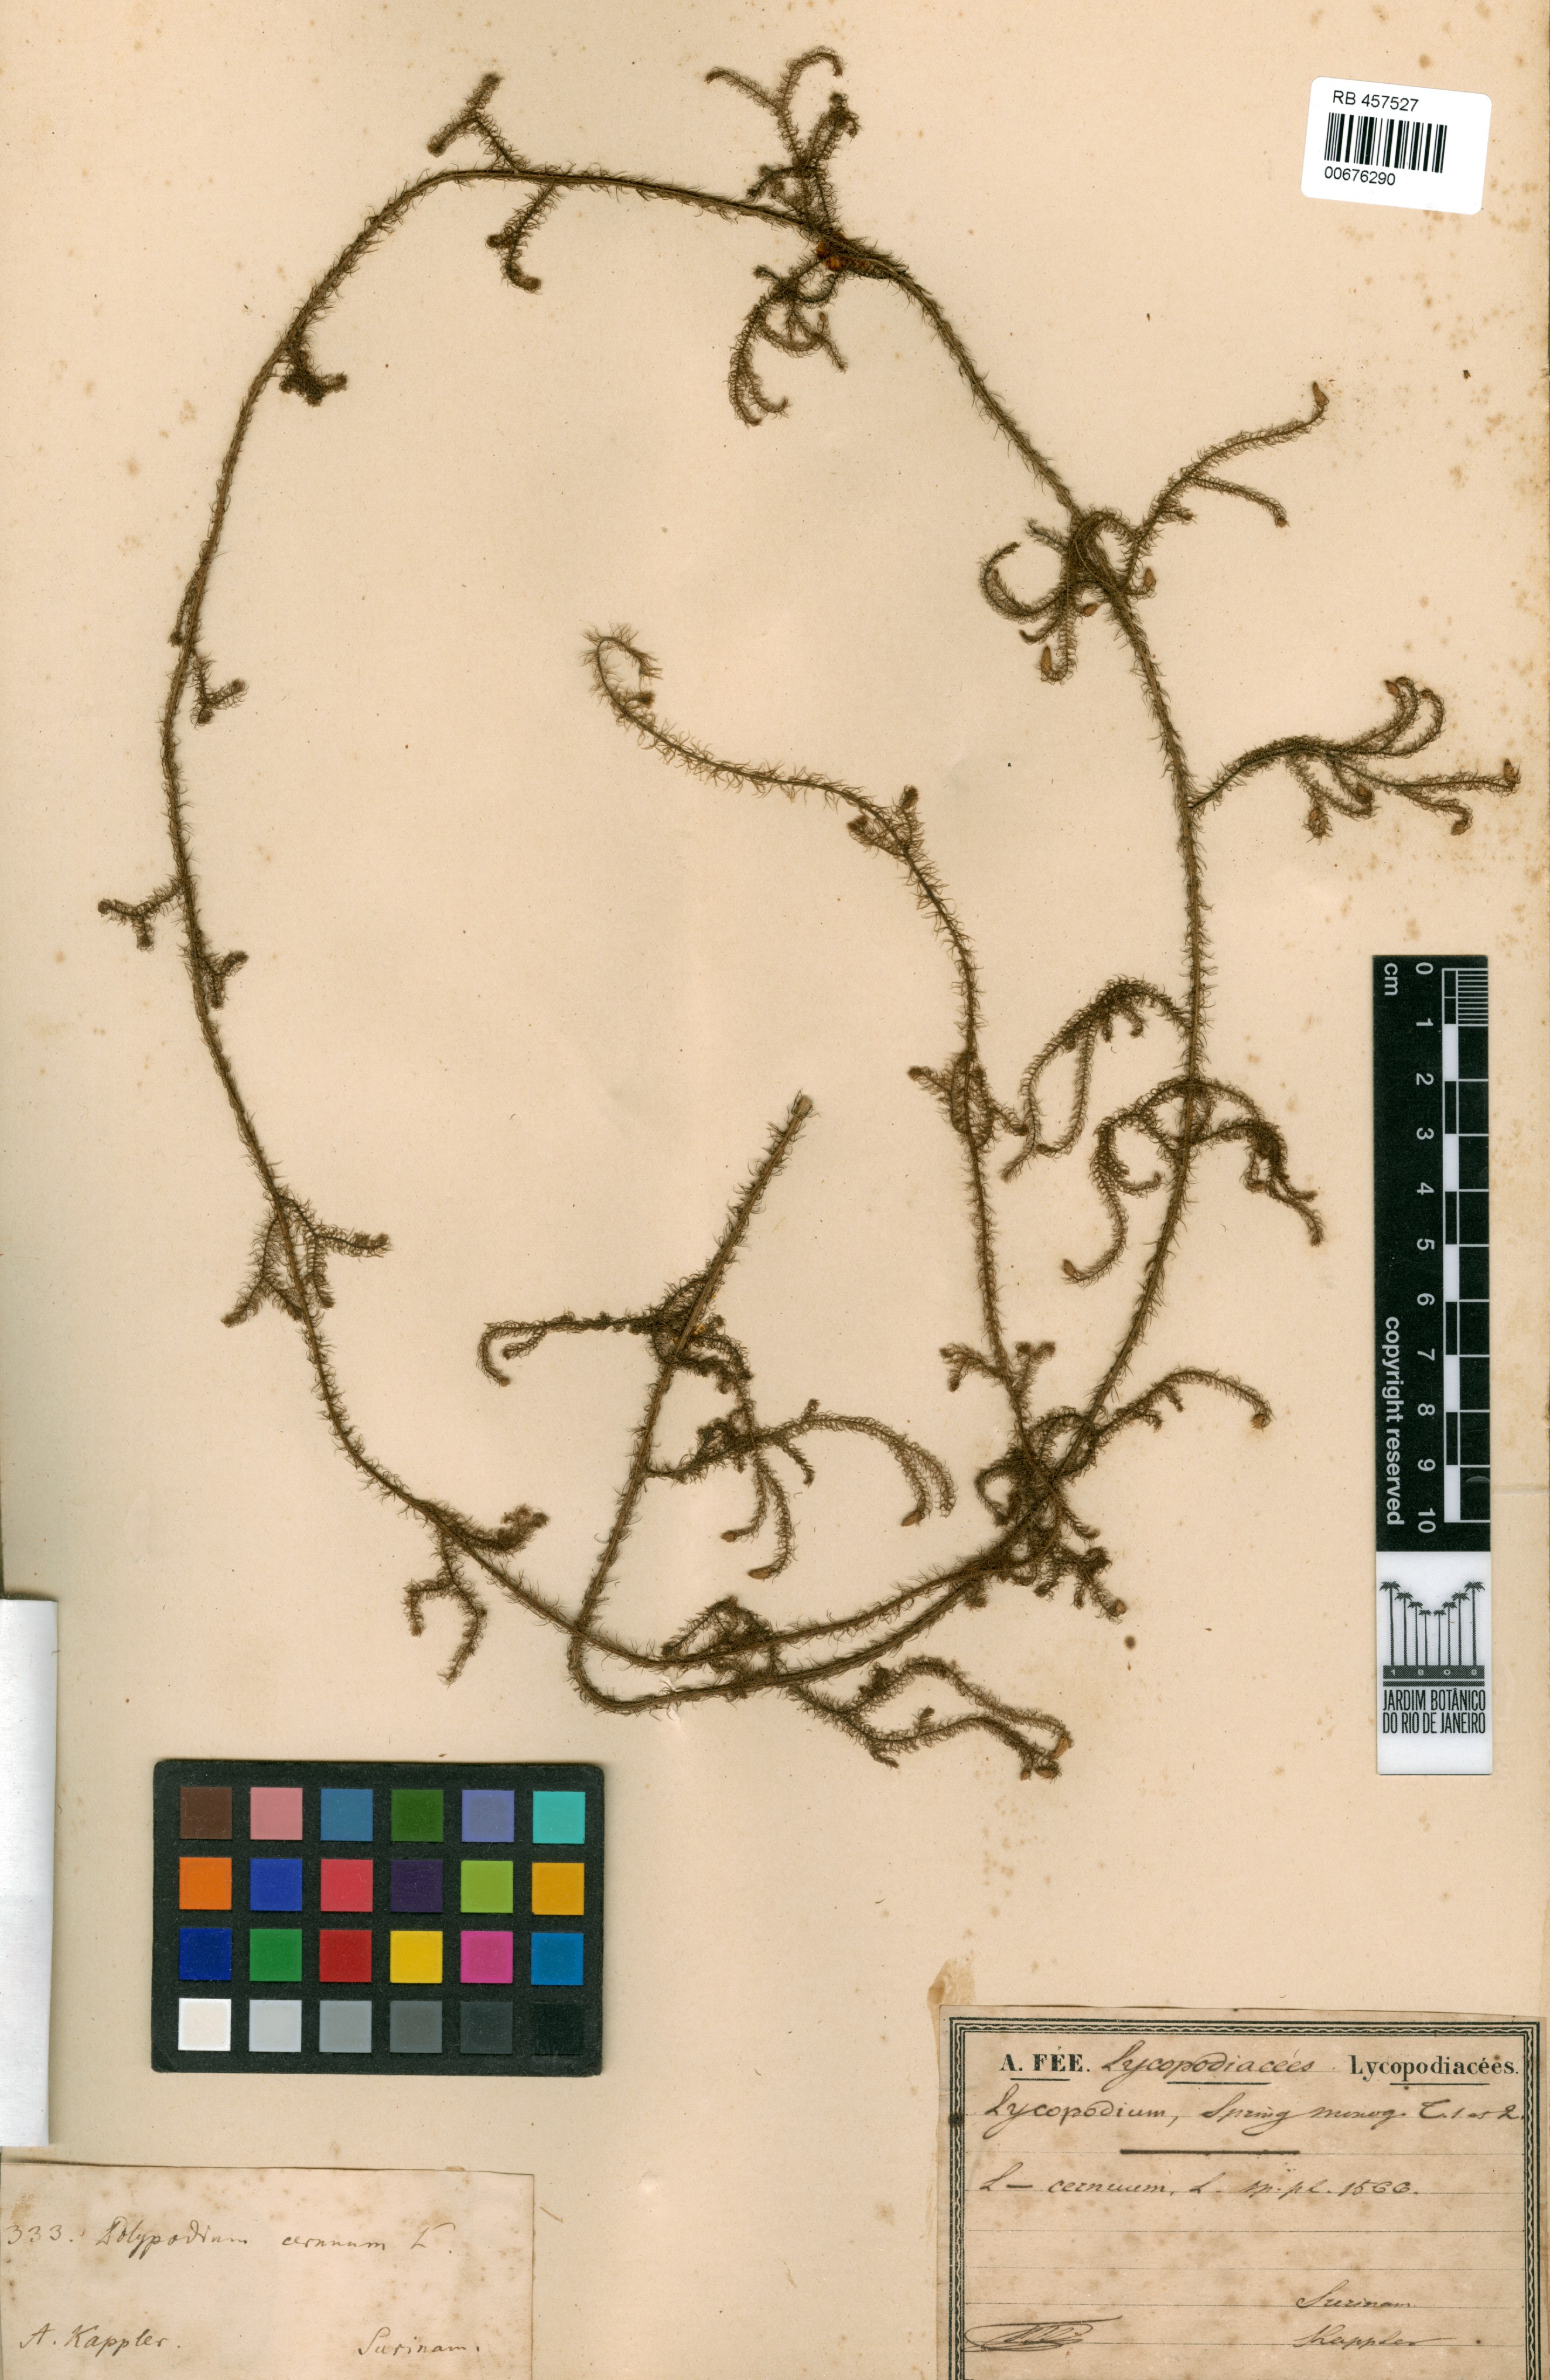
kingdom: Plantae
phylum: Tracheophyta
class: Lycopodiopsida
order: Lycopodiales
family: Lycopodiaceae
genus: Palhinhaea
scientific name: Palhinhaea cernua
